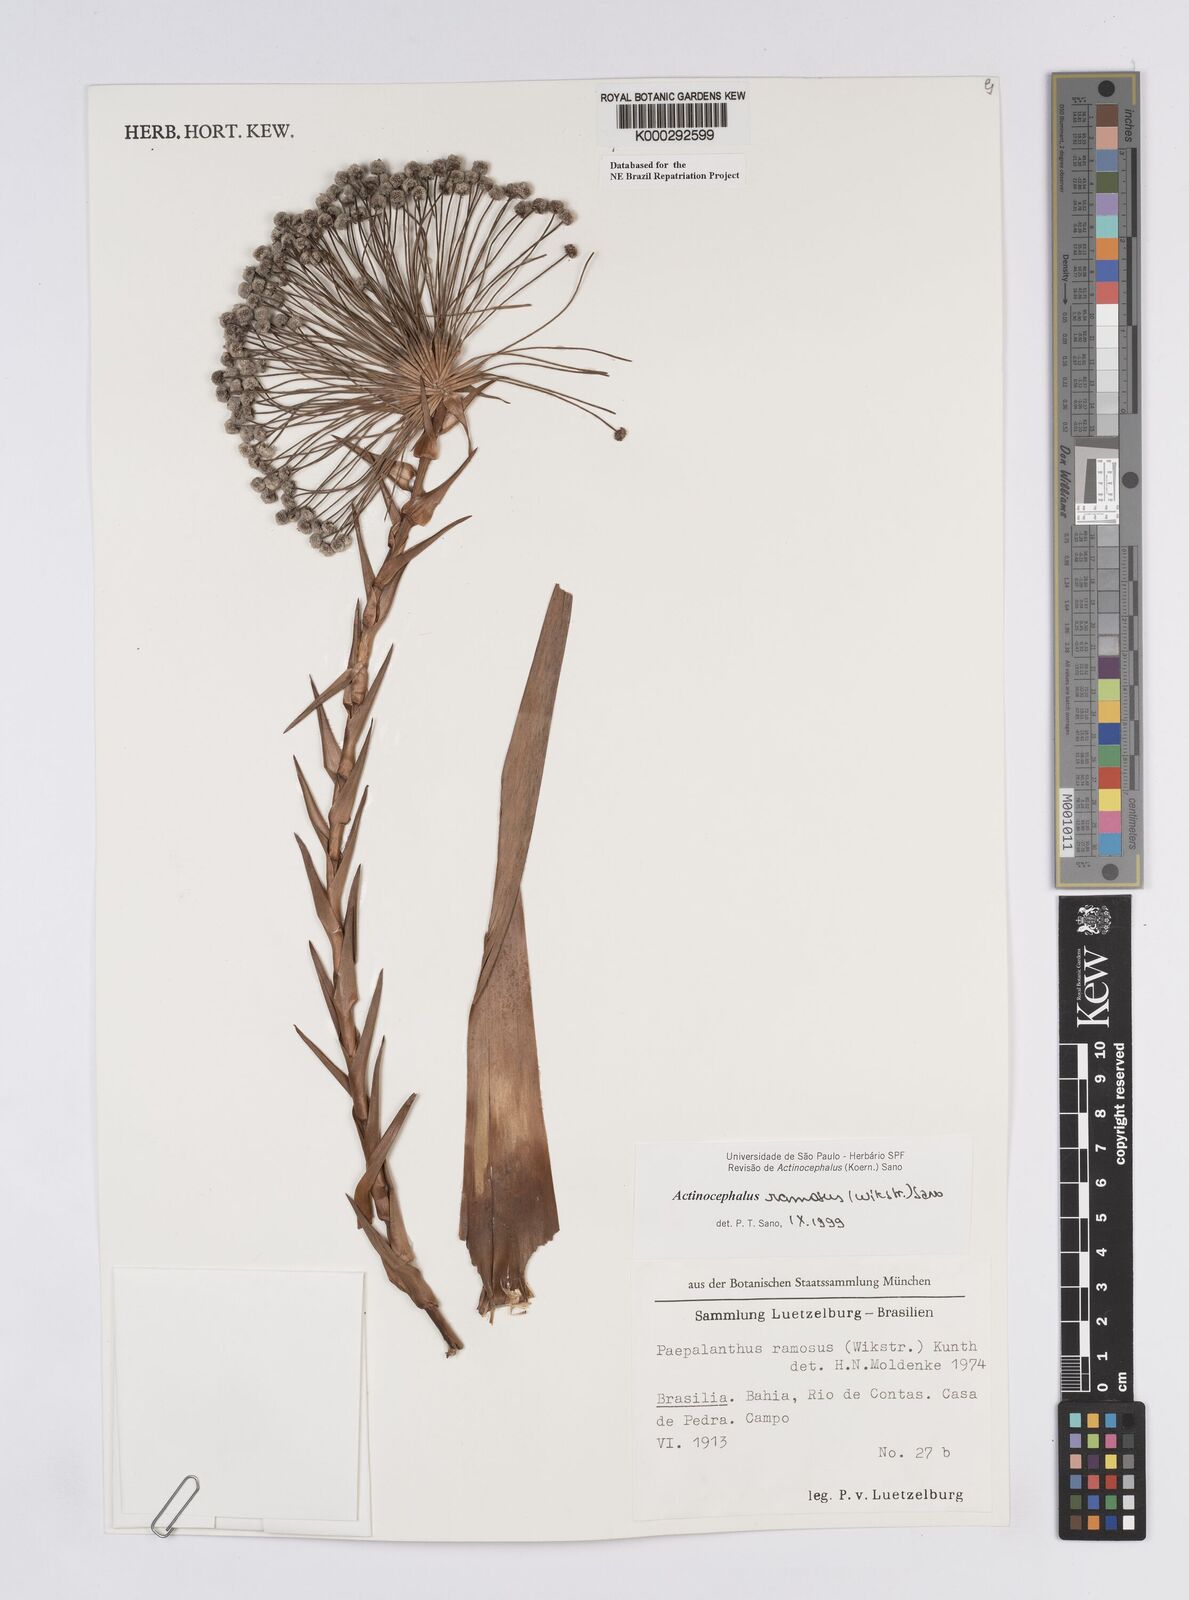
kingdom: Plantae
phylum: Tracheophyta
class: Liliopsida
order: Poales
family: Eriocaulaceae
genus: Paepalanthus
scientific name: Paepalanthus ramosus
